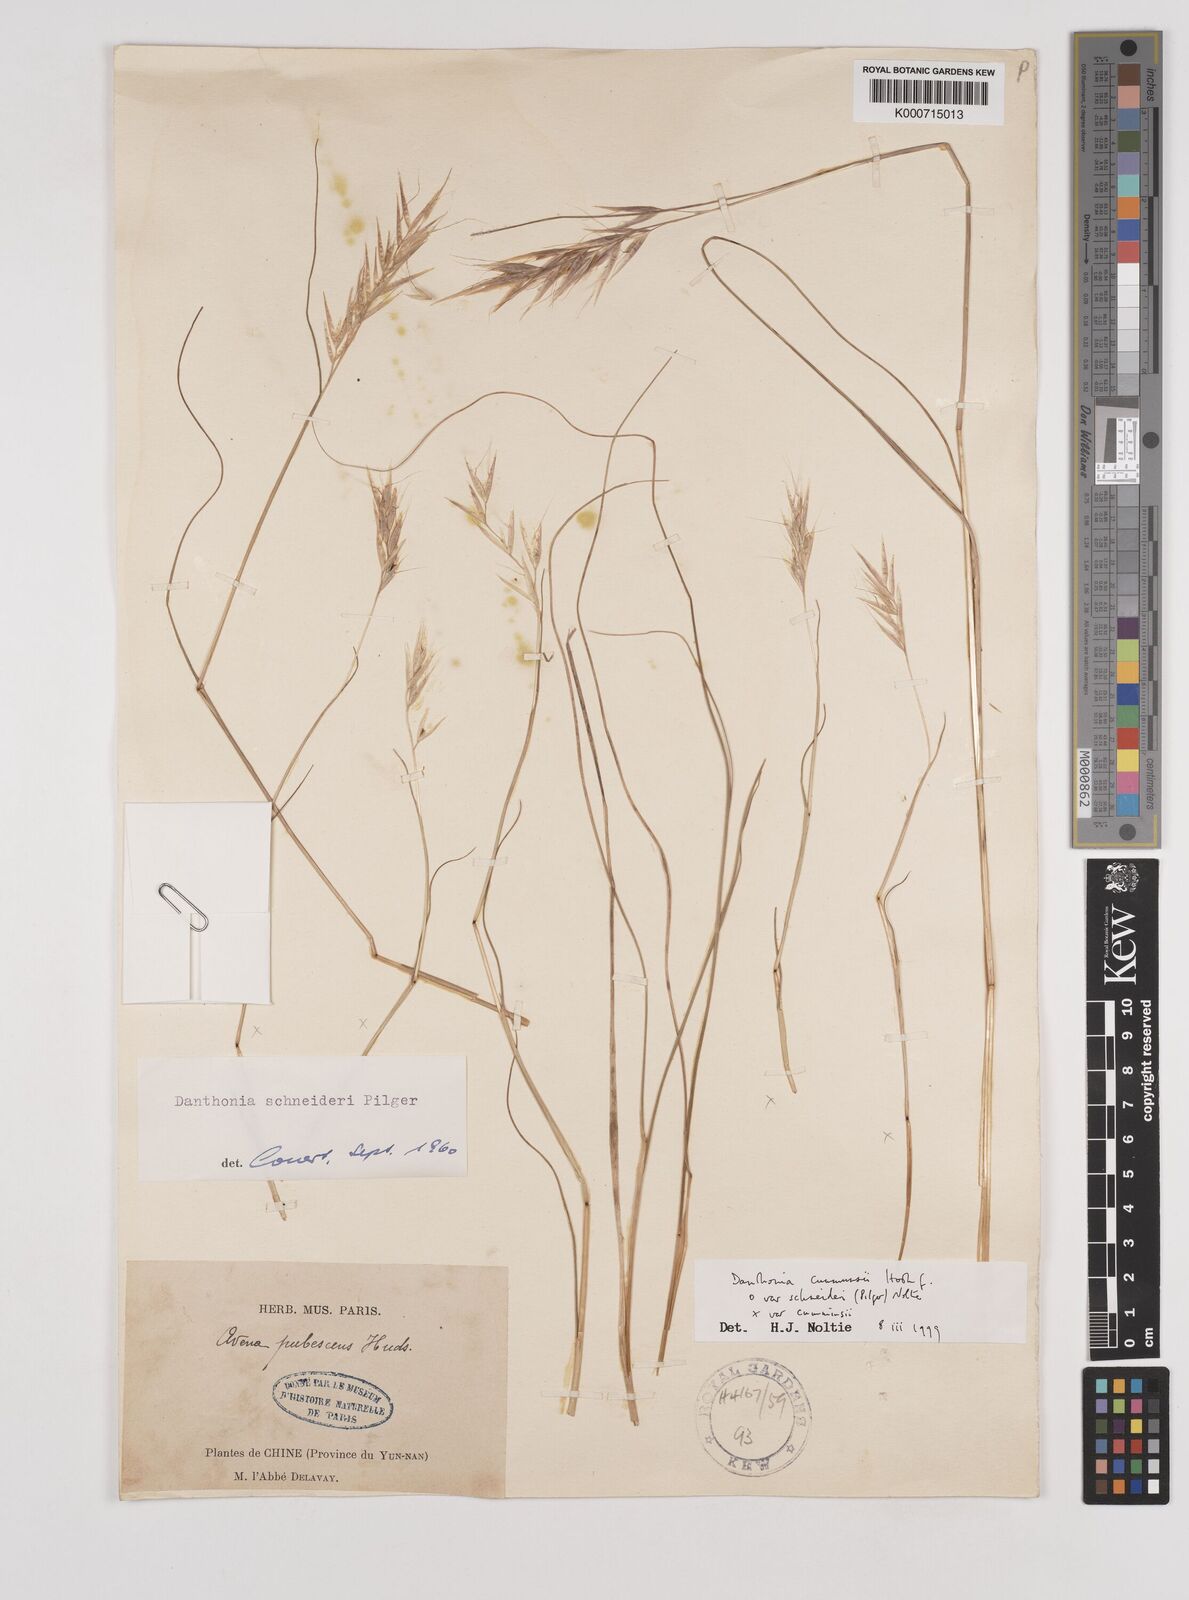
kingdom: Plantae
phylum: Tracheophyta
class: Liliopsida
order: Poales
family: Poaceae
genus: Rytidosperma
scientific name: Rytidosperma
